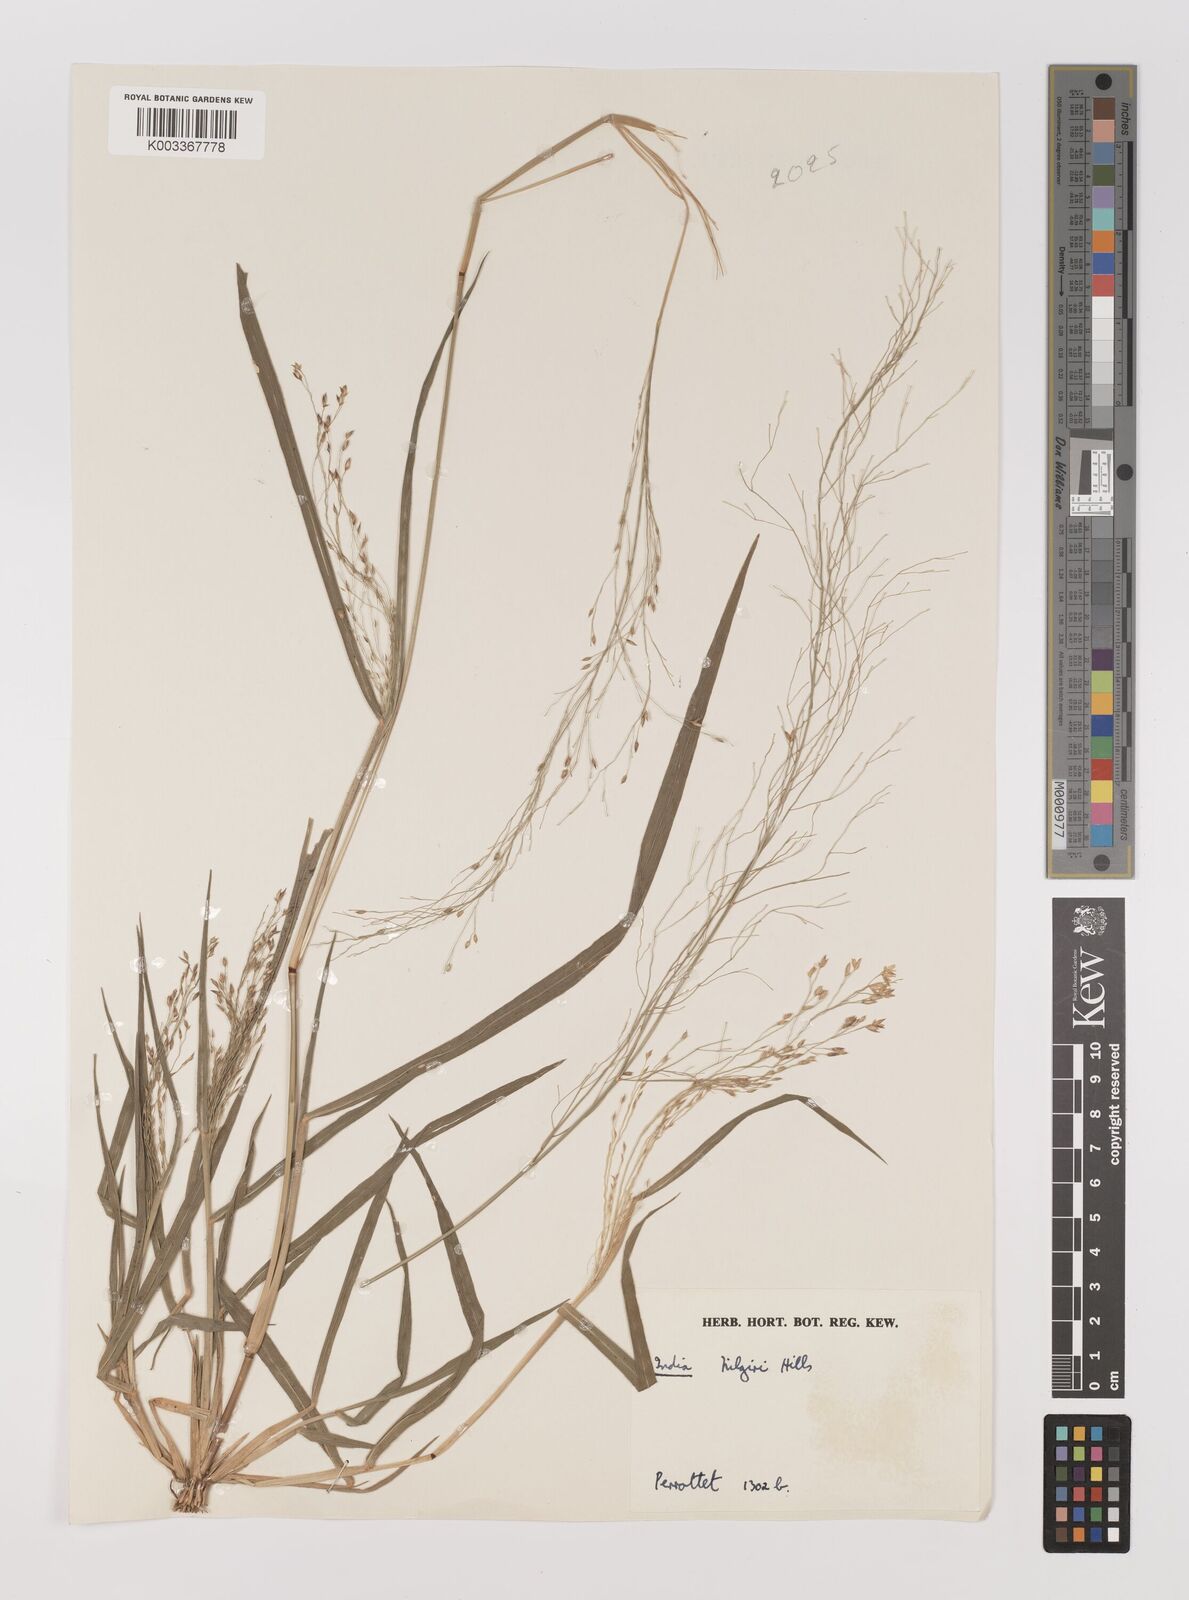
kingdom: Plantae
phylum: Tracheophyta
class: Liliopsida
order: Poales
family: Poaceae
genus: Panicum
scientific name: Panicum curviflorum
